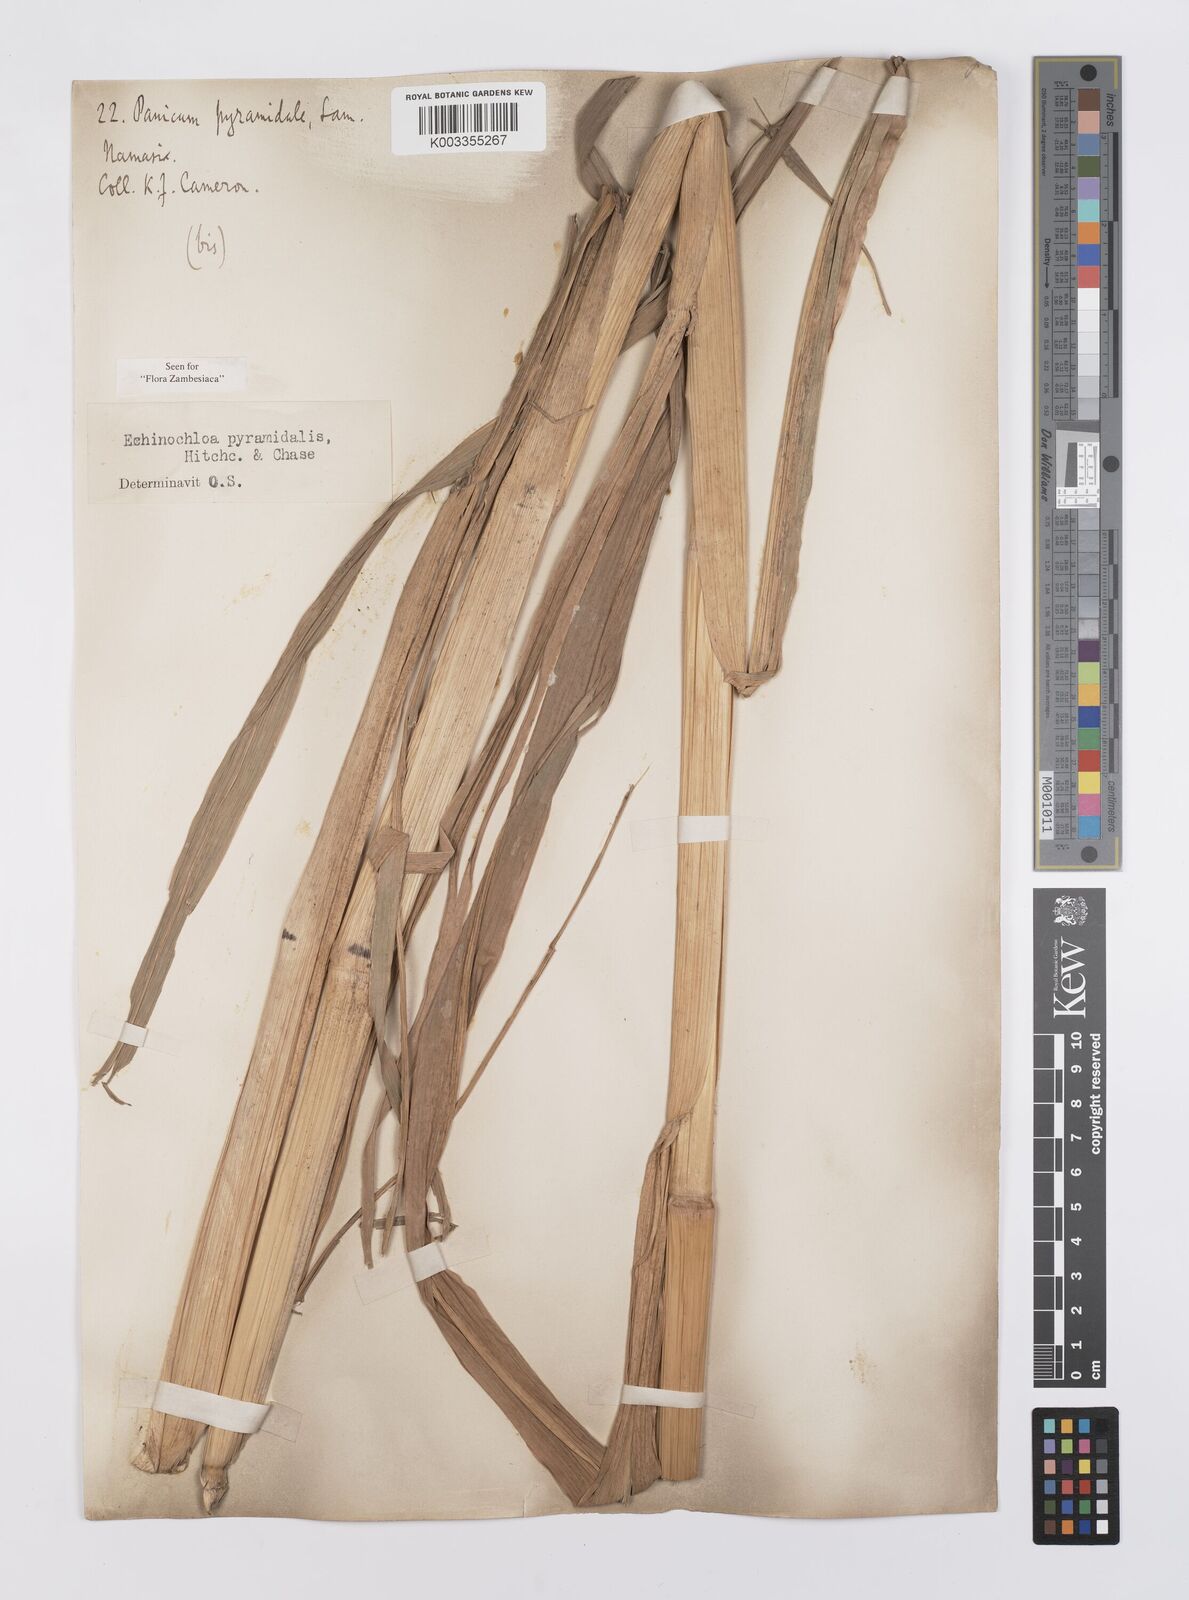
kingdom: Plantae
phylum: Tracheophyta
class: Liliopsida
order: Poales
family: Poaceae
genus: Echinochloa
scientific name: Echinochloa pyramidalis
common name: Antelope grass
